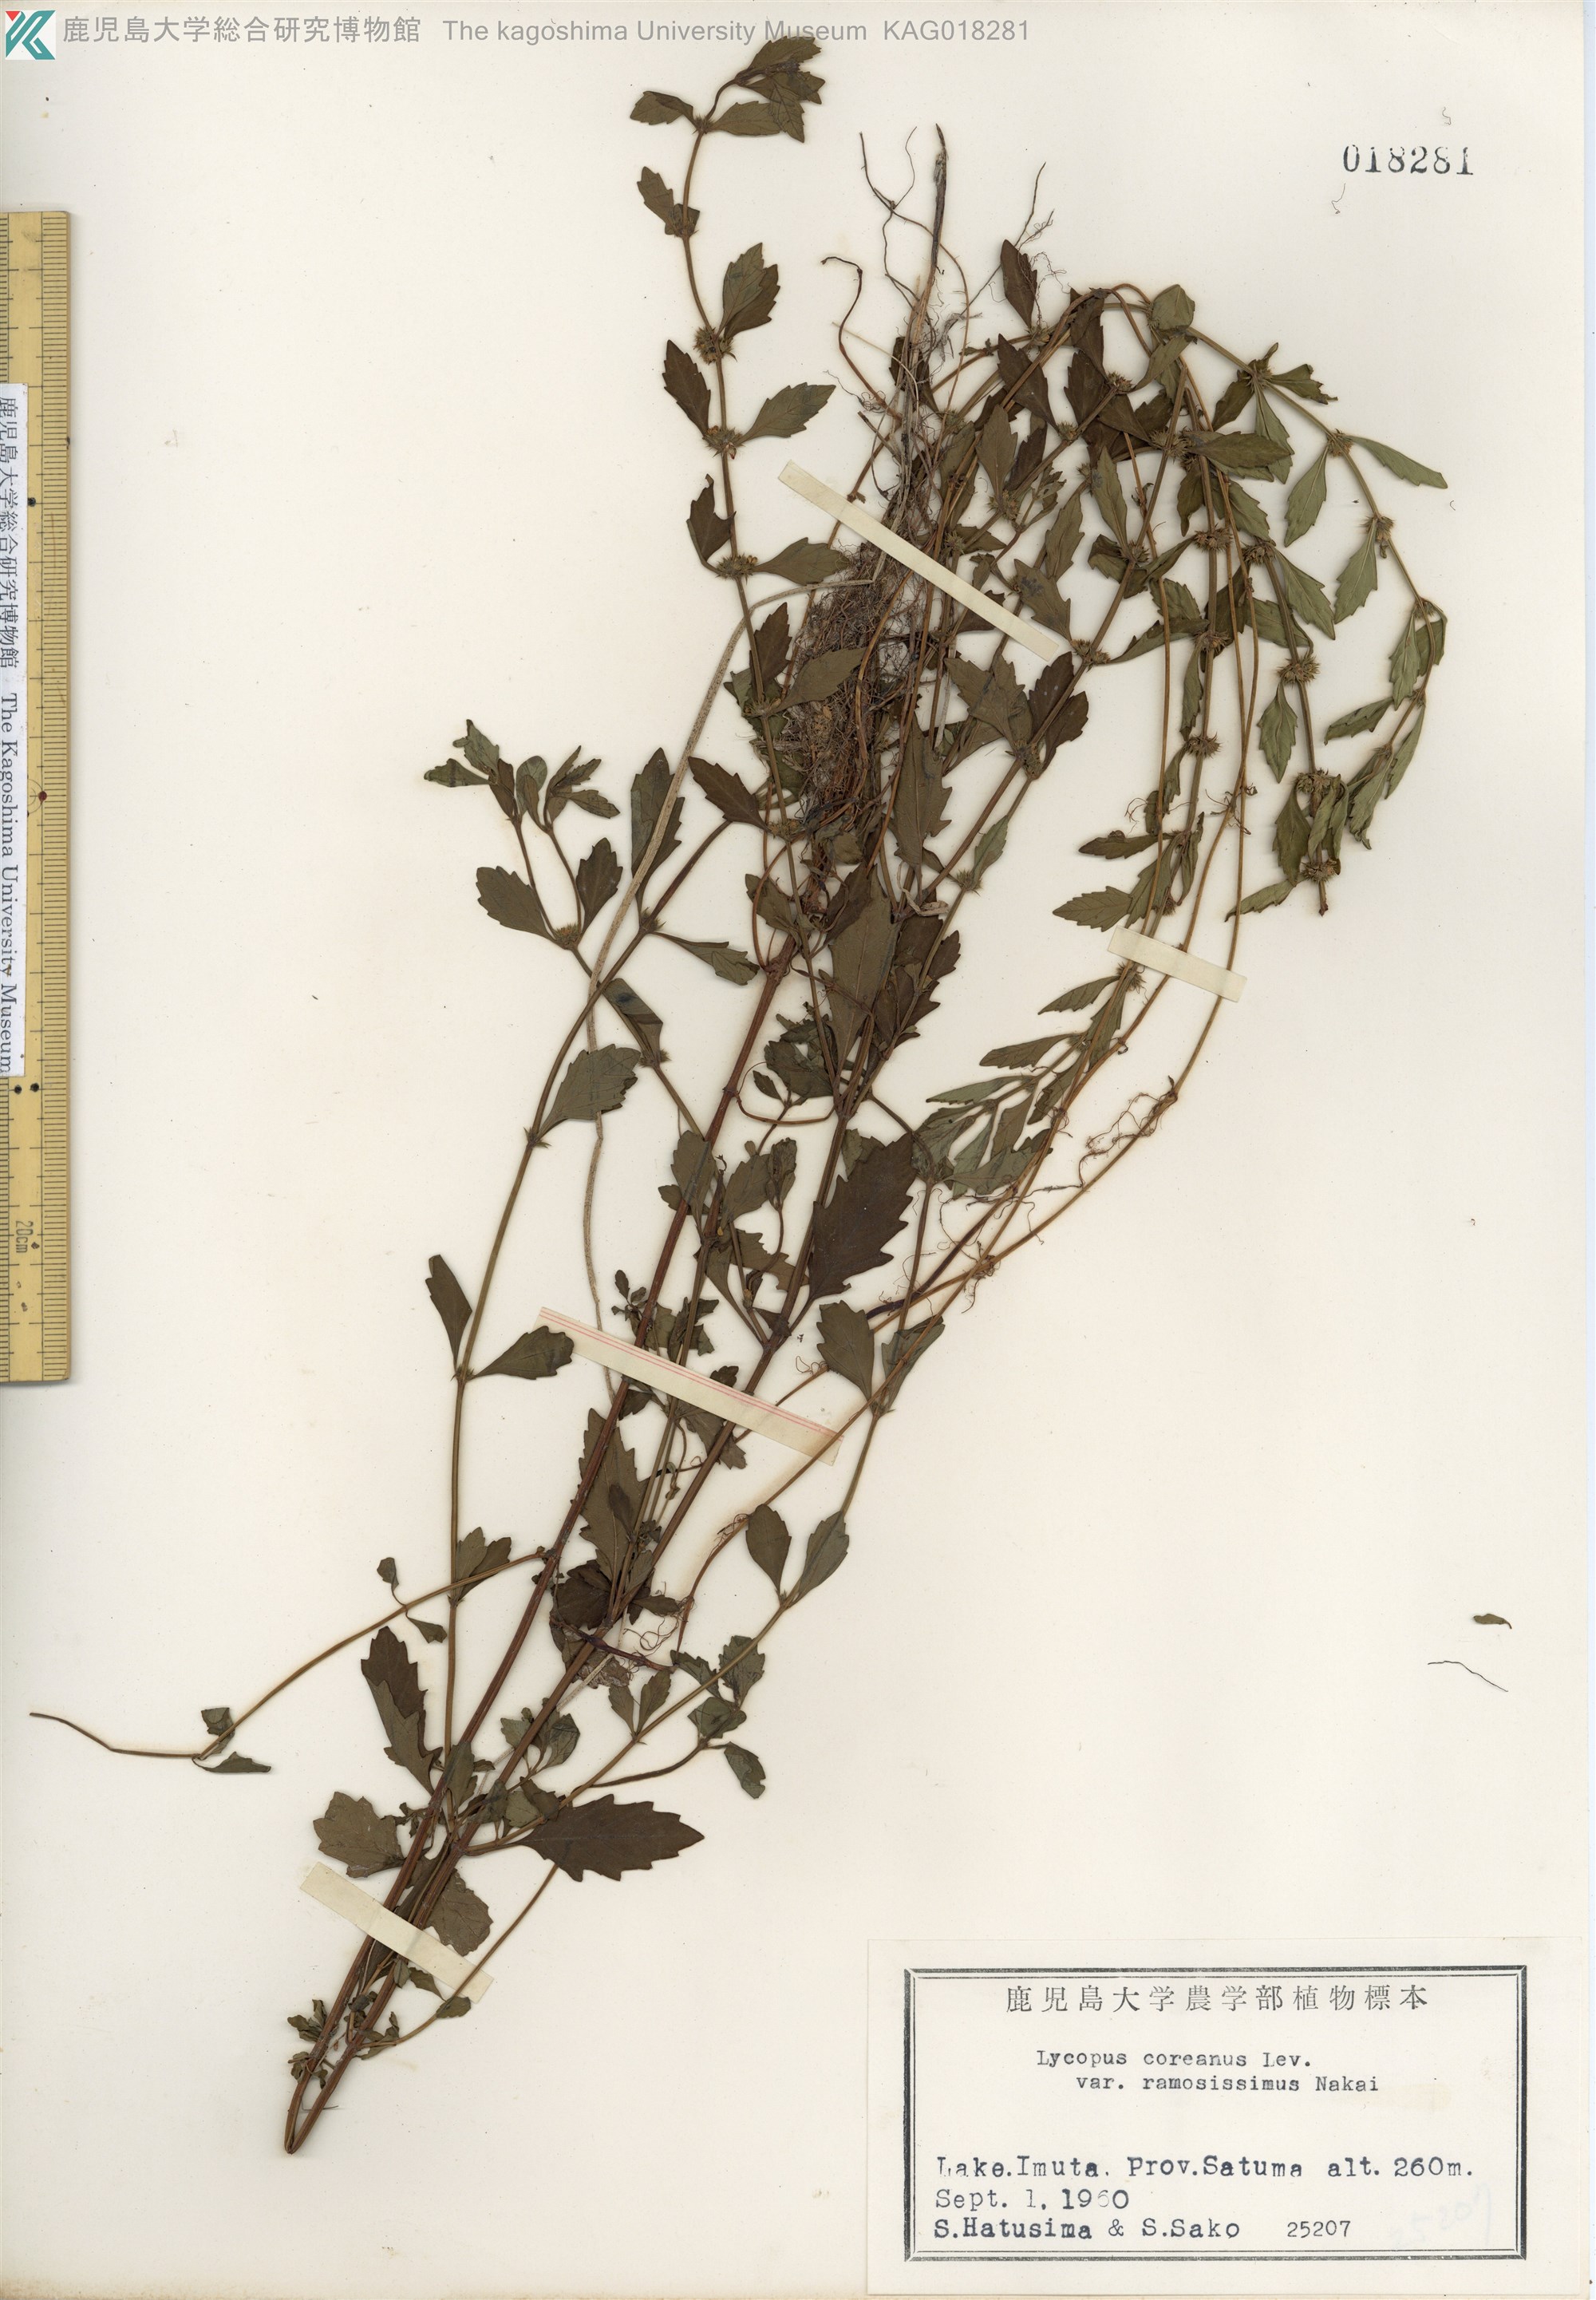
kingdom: Plantae
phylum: Tracheophyta
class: Magnoliopsida
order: Lamiales
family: Lamiaceae
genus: Lycopus
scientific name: Lycopus cavaleriei
